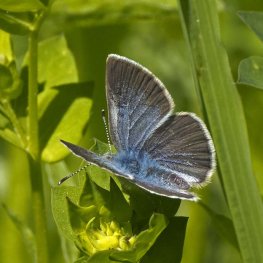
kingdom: Animalia
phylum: Arthropoda
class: Insecta
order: Lepidoptera
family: Lycaenidae
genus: Glaucopsyche
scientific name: Glaucopsyche lygdamus
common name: Silvery Blue
